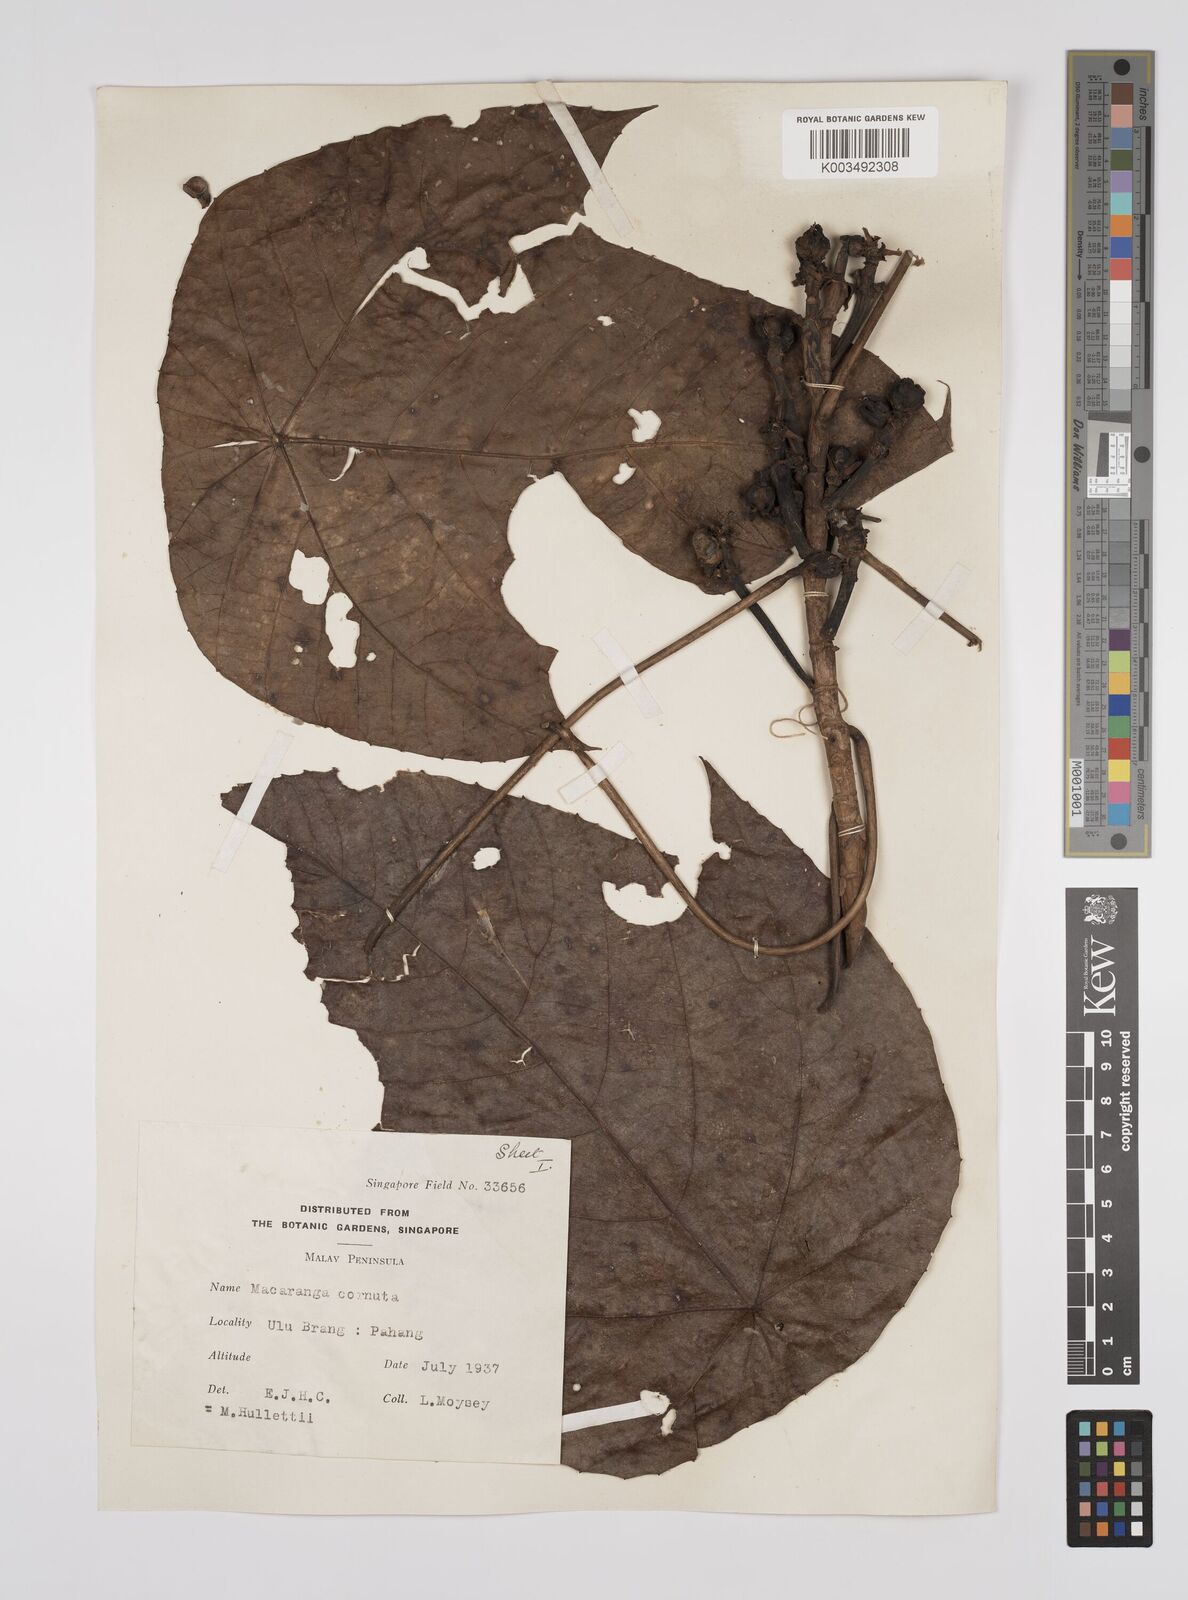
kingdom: Plantae
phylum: Tracheophyta
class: Magnoliopsida
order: Malpighiales
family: Euphorbiaceae
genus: Macaranga
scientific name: Macaranga hullettii
